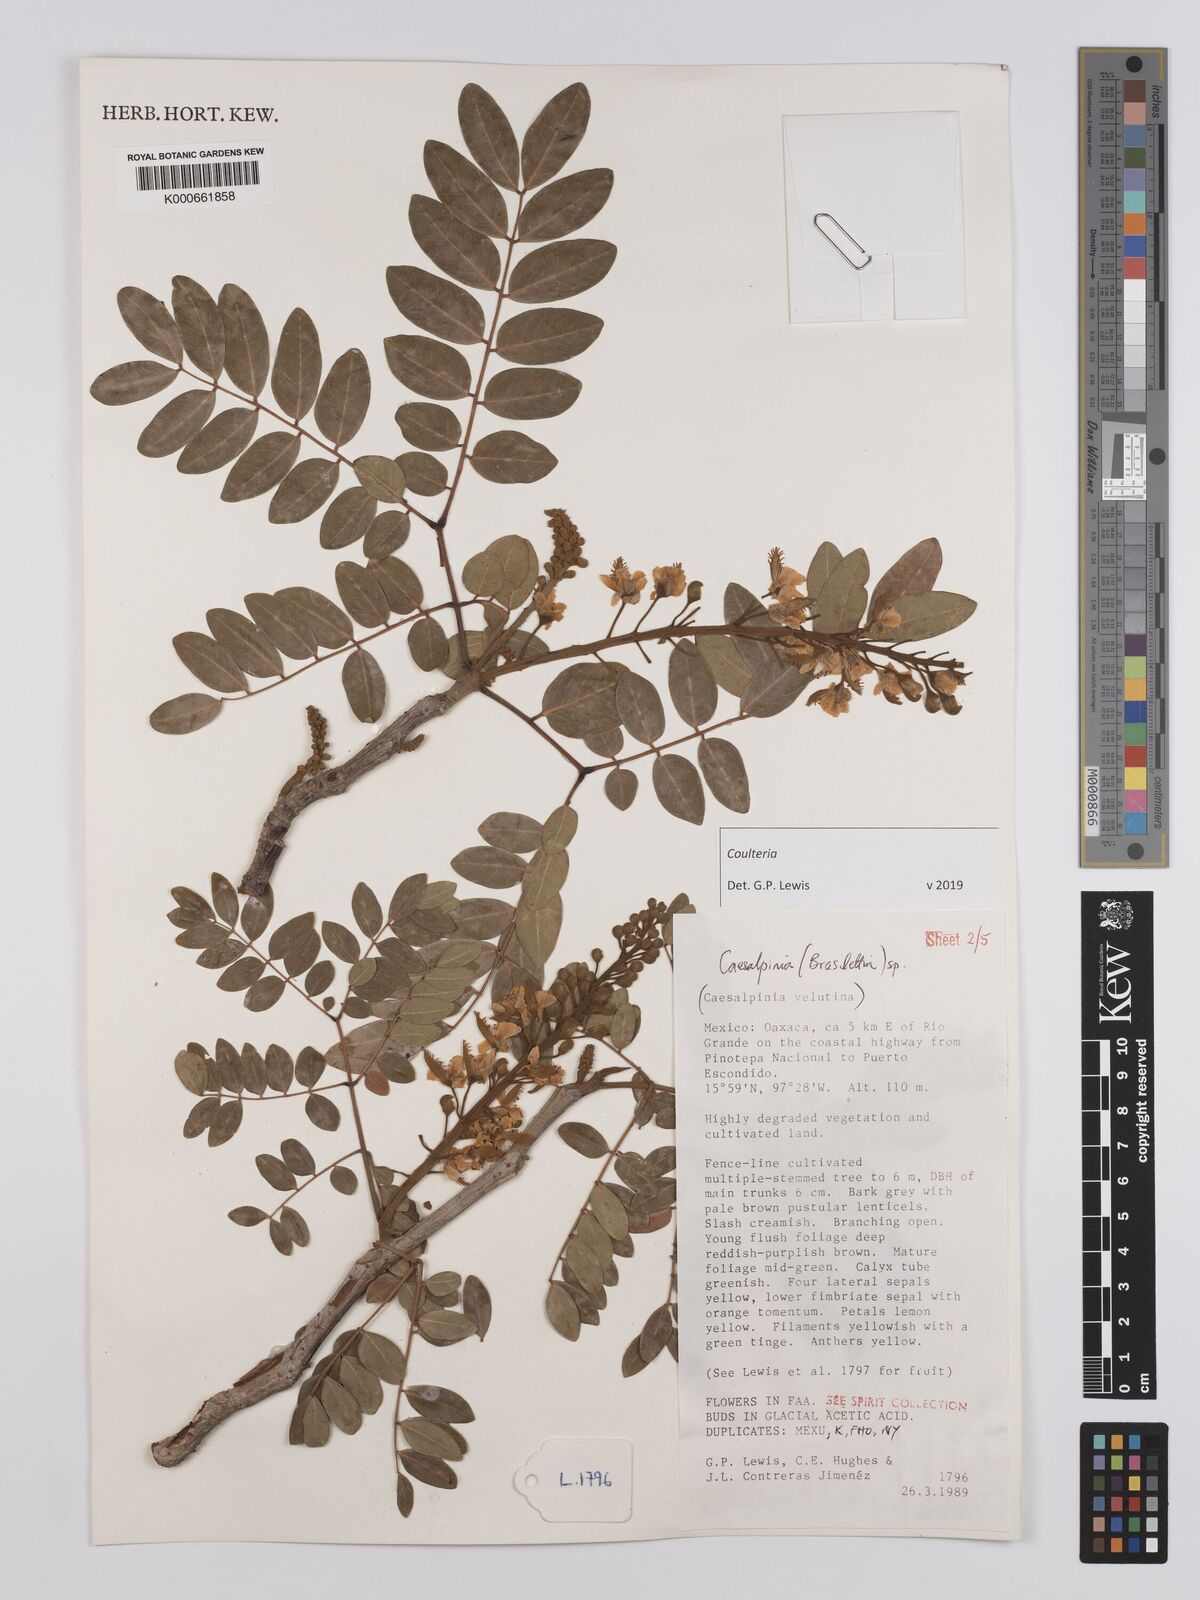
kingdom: Plantae
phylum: Tracheophyta
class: Magnoliopsida
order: Fabales
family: Fabaceae
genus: Coulteria
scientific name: Coulteria
